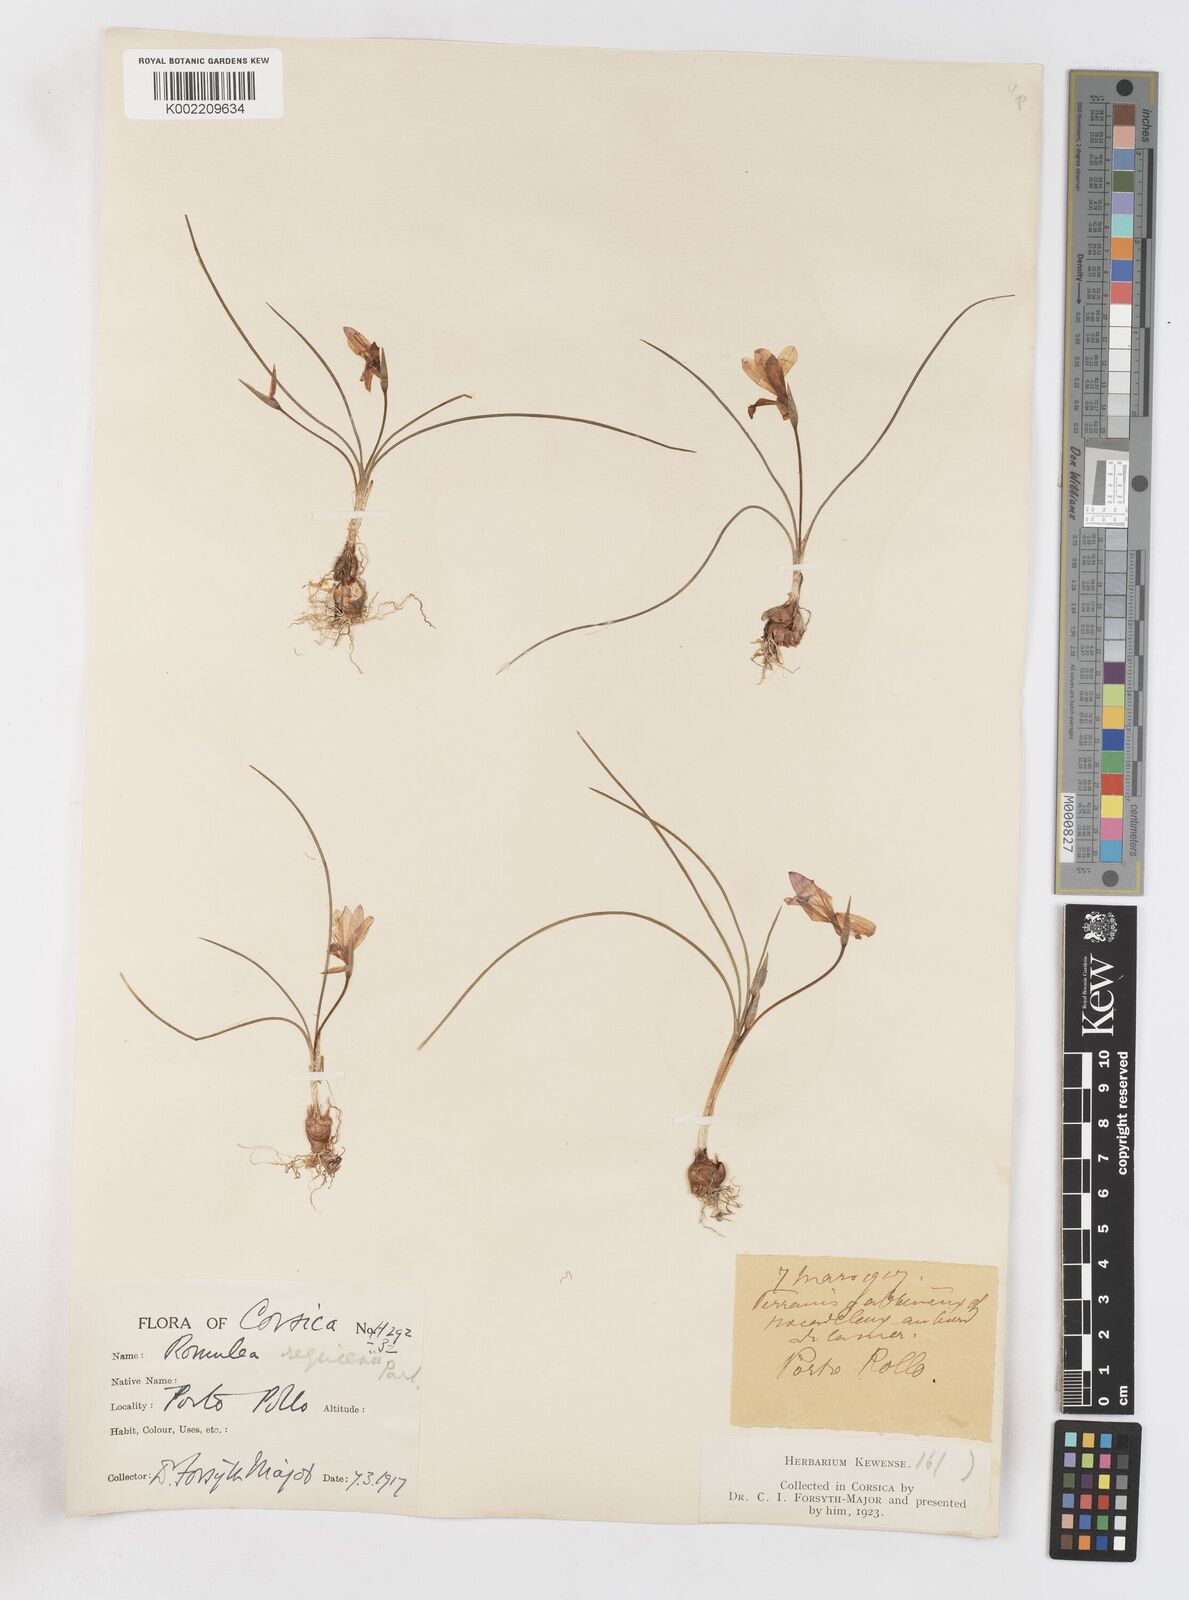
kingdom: Plantae
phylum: Tracheophyta
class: Liliopsida
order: Asparagales
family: Iridaceae
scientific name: Iridaceae
